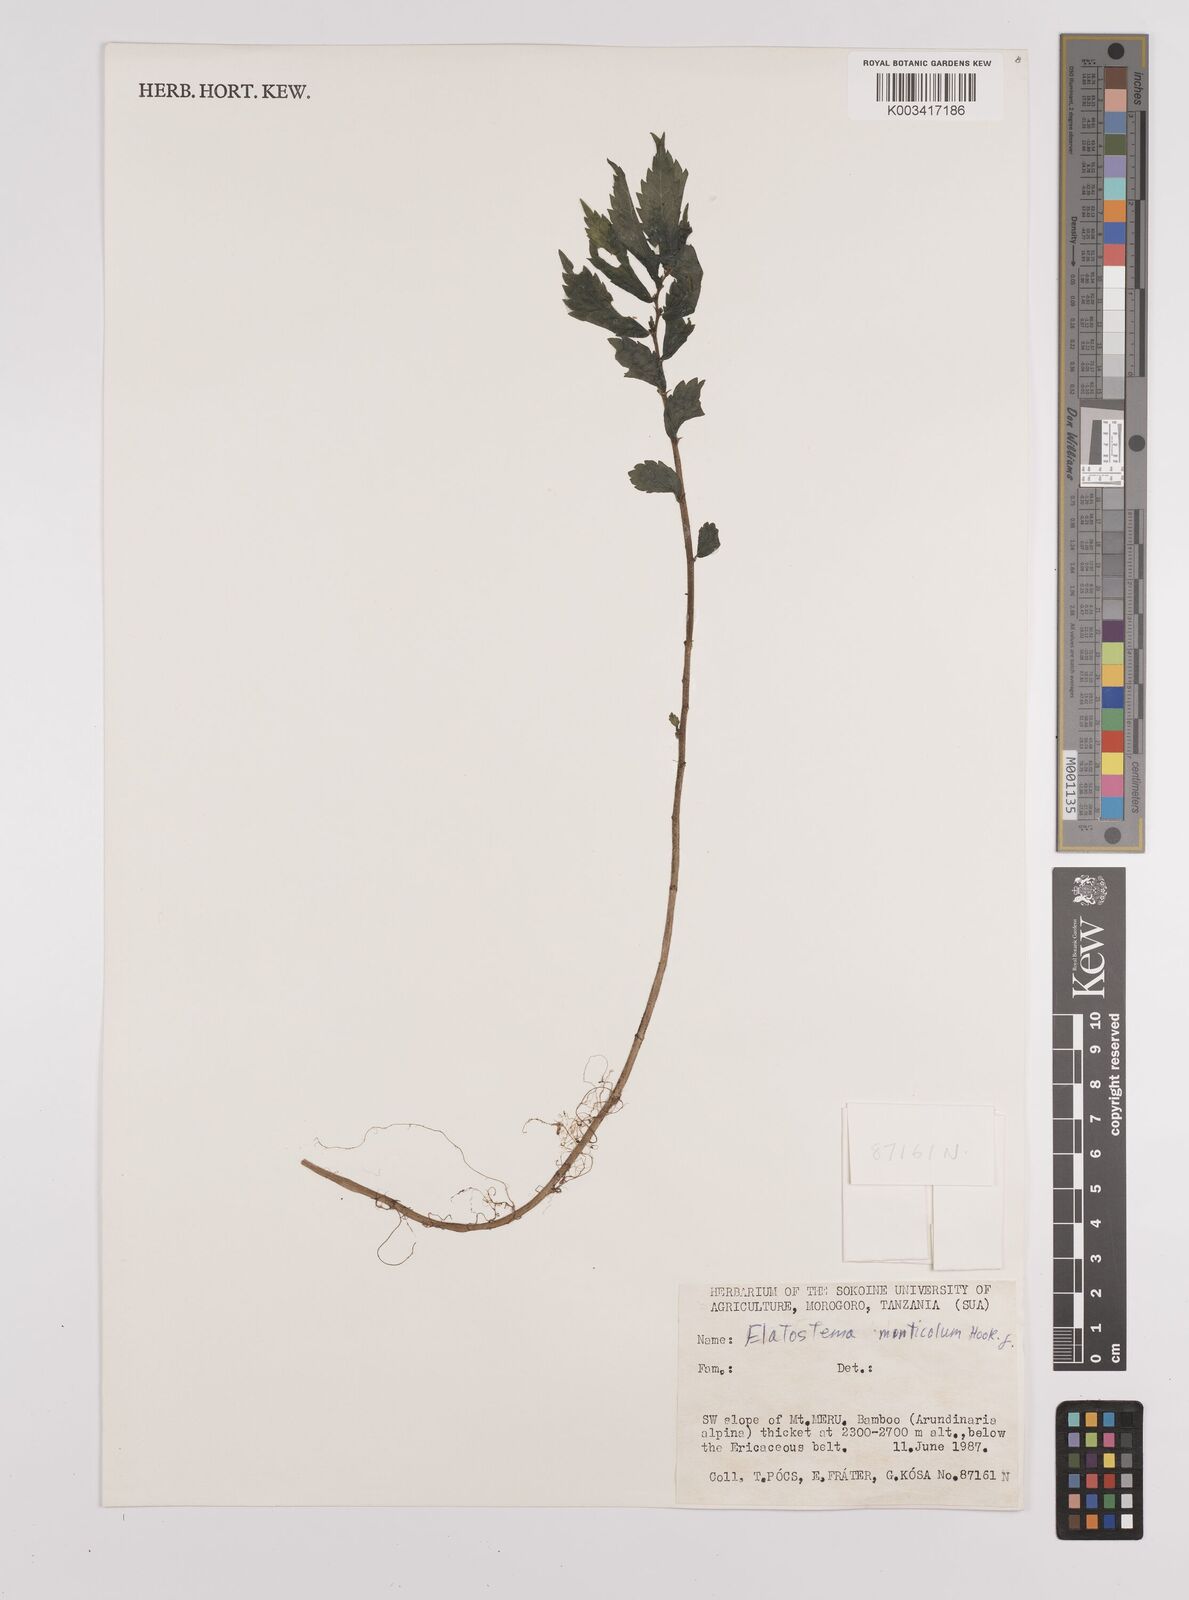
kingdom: Plantae
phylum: Tracheophyta
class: Magnoliopsida
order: Rosales
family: Urticaceae
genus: Elatostema
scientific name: Elatostema monticola
